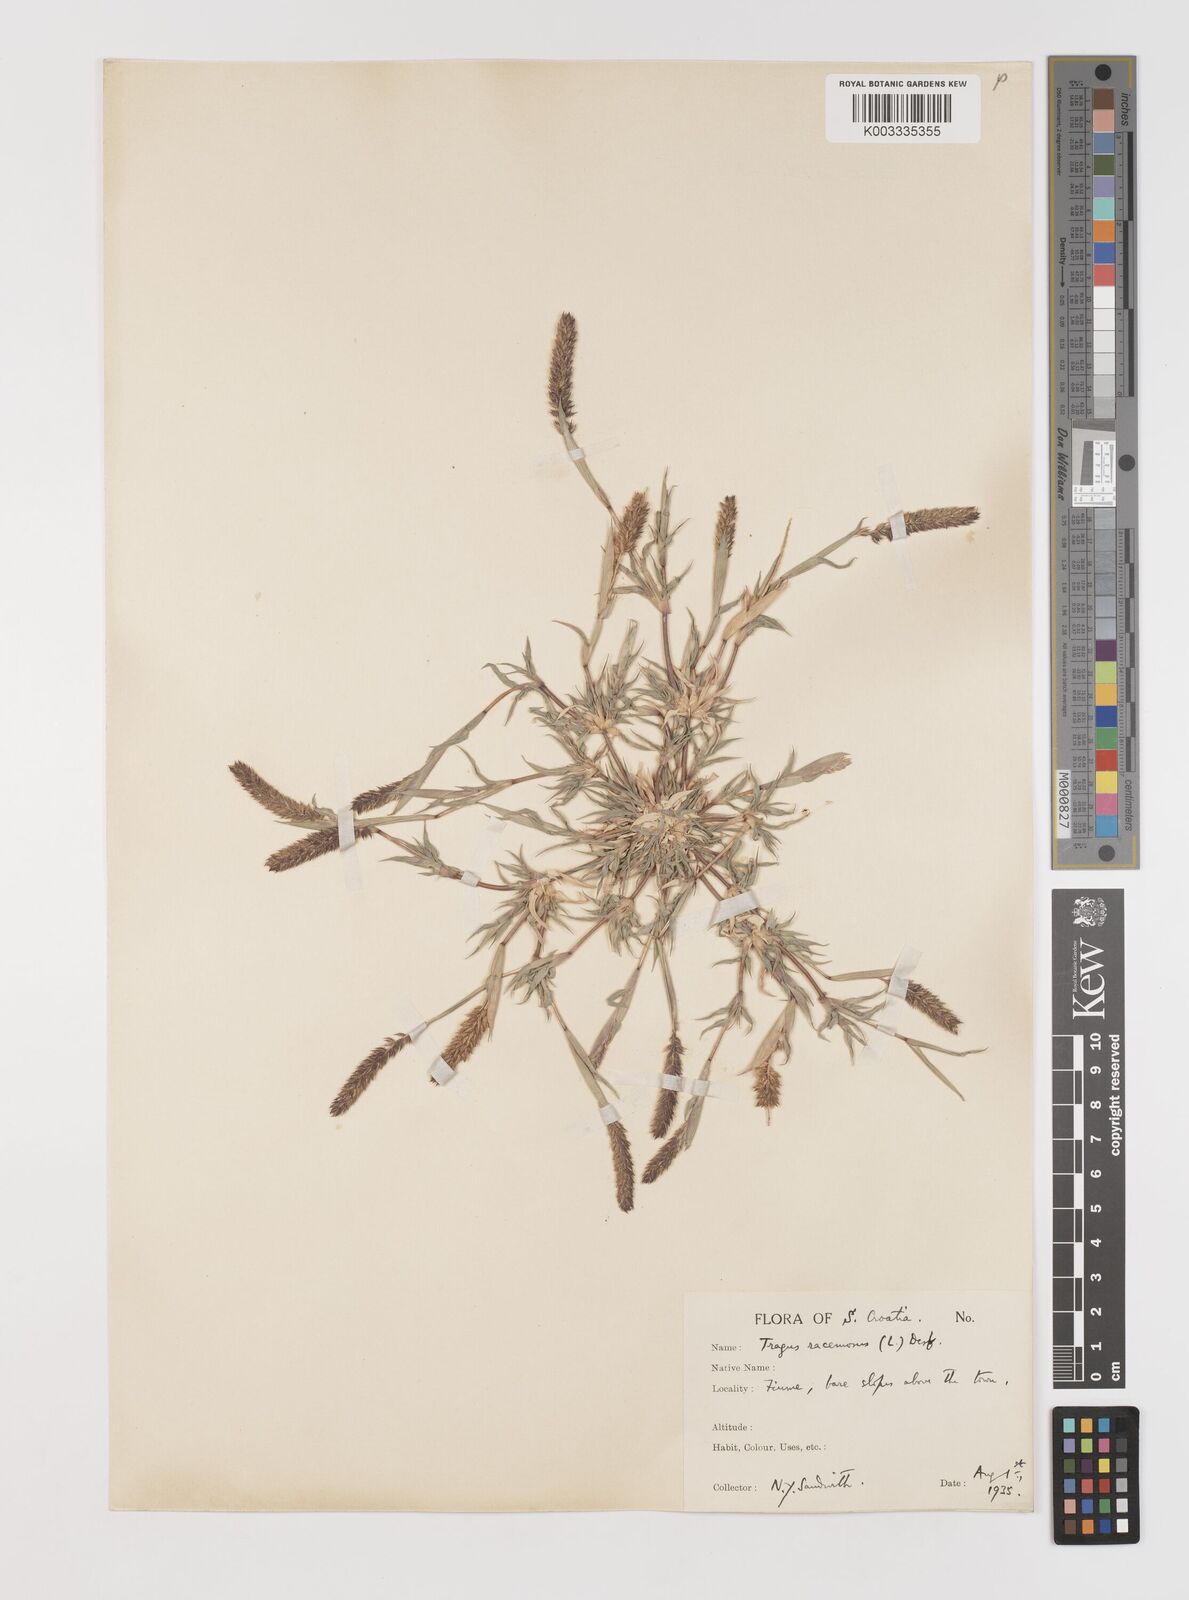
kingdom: Plantae
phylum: Tracheophyta
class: Liliopsida
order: Poales
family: Poaceae
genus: Tragus
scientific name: Tragus racemosus
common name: European bur-grass
